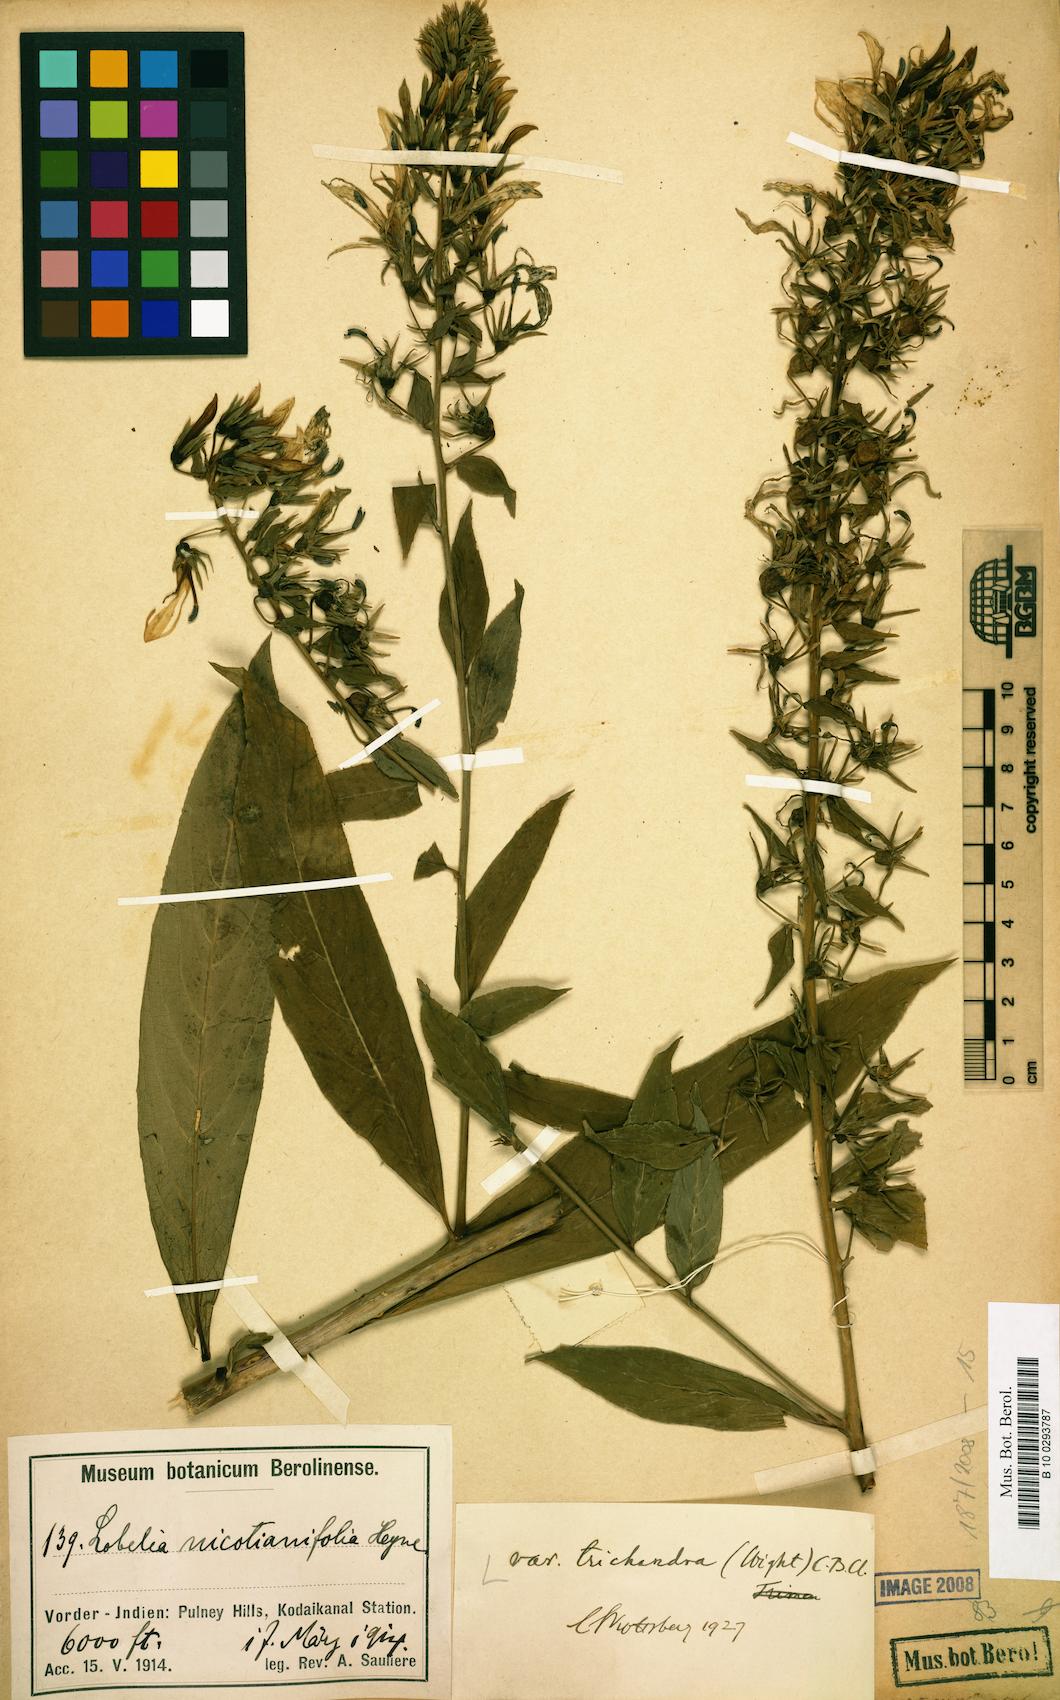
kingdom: Plantae
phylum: Tracheophyta
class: Magnoliopsida
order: Asterales
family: Campanulaceae
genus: Lobelia
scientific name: Lobelia nicotianifolia
